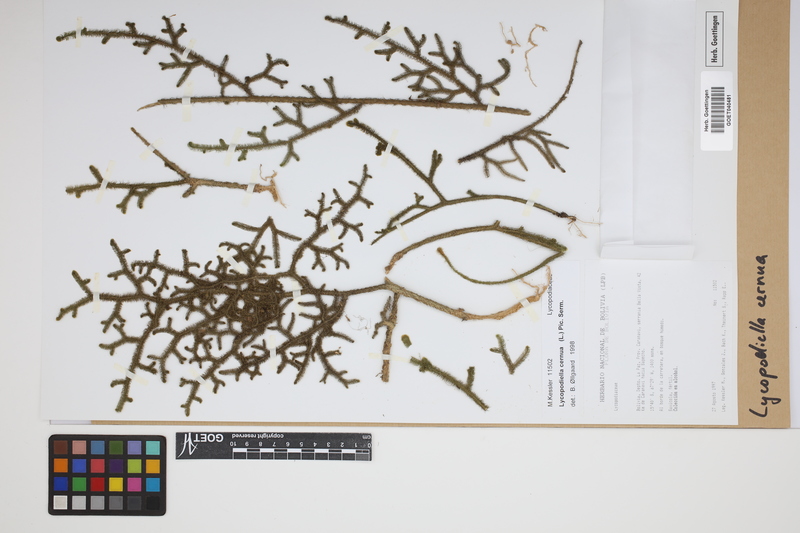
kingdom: Plantae
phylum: Tracheophyta
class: Lycopodiopsida
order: Lycopodiales
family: Lycopodiaceae
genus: Palhinhaea
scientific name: Palhinhaea cernua
